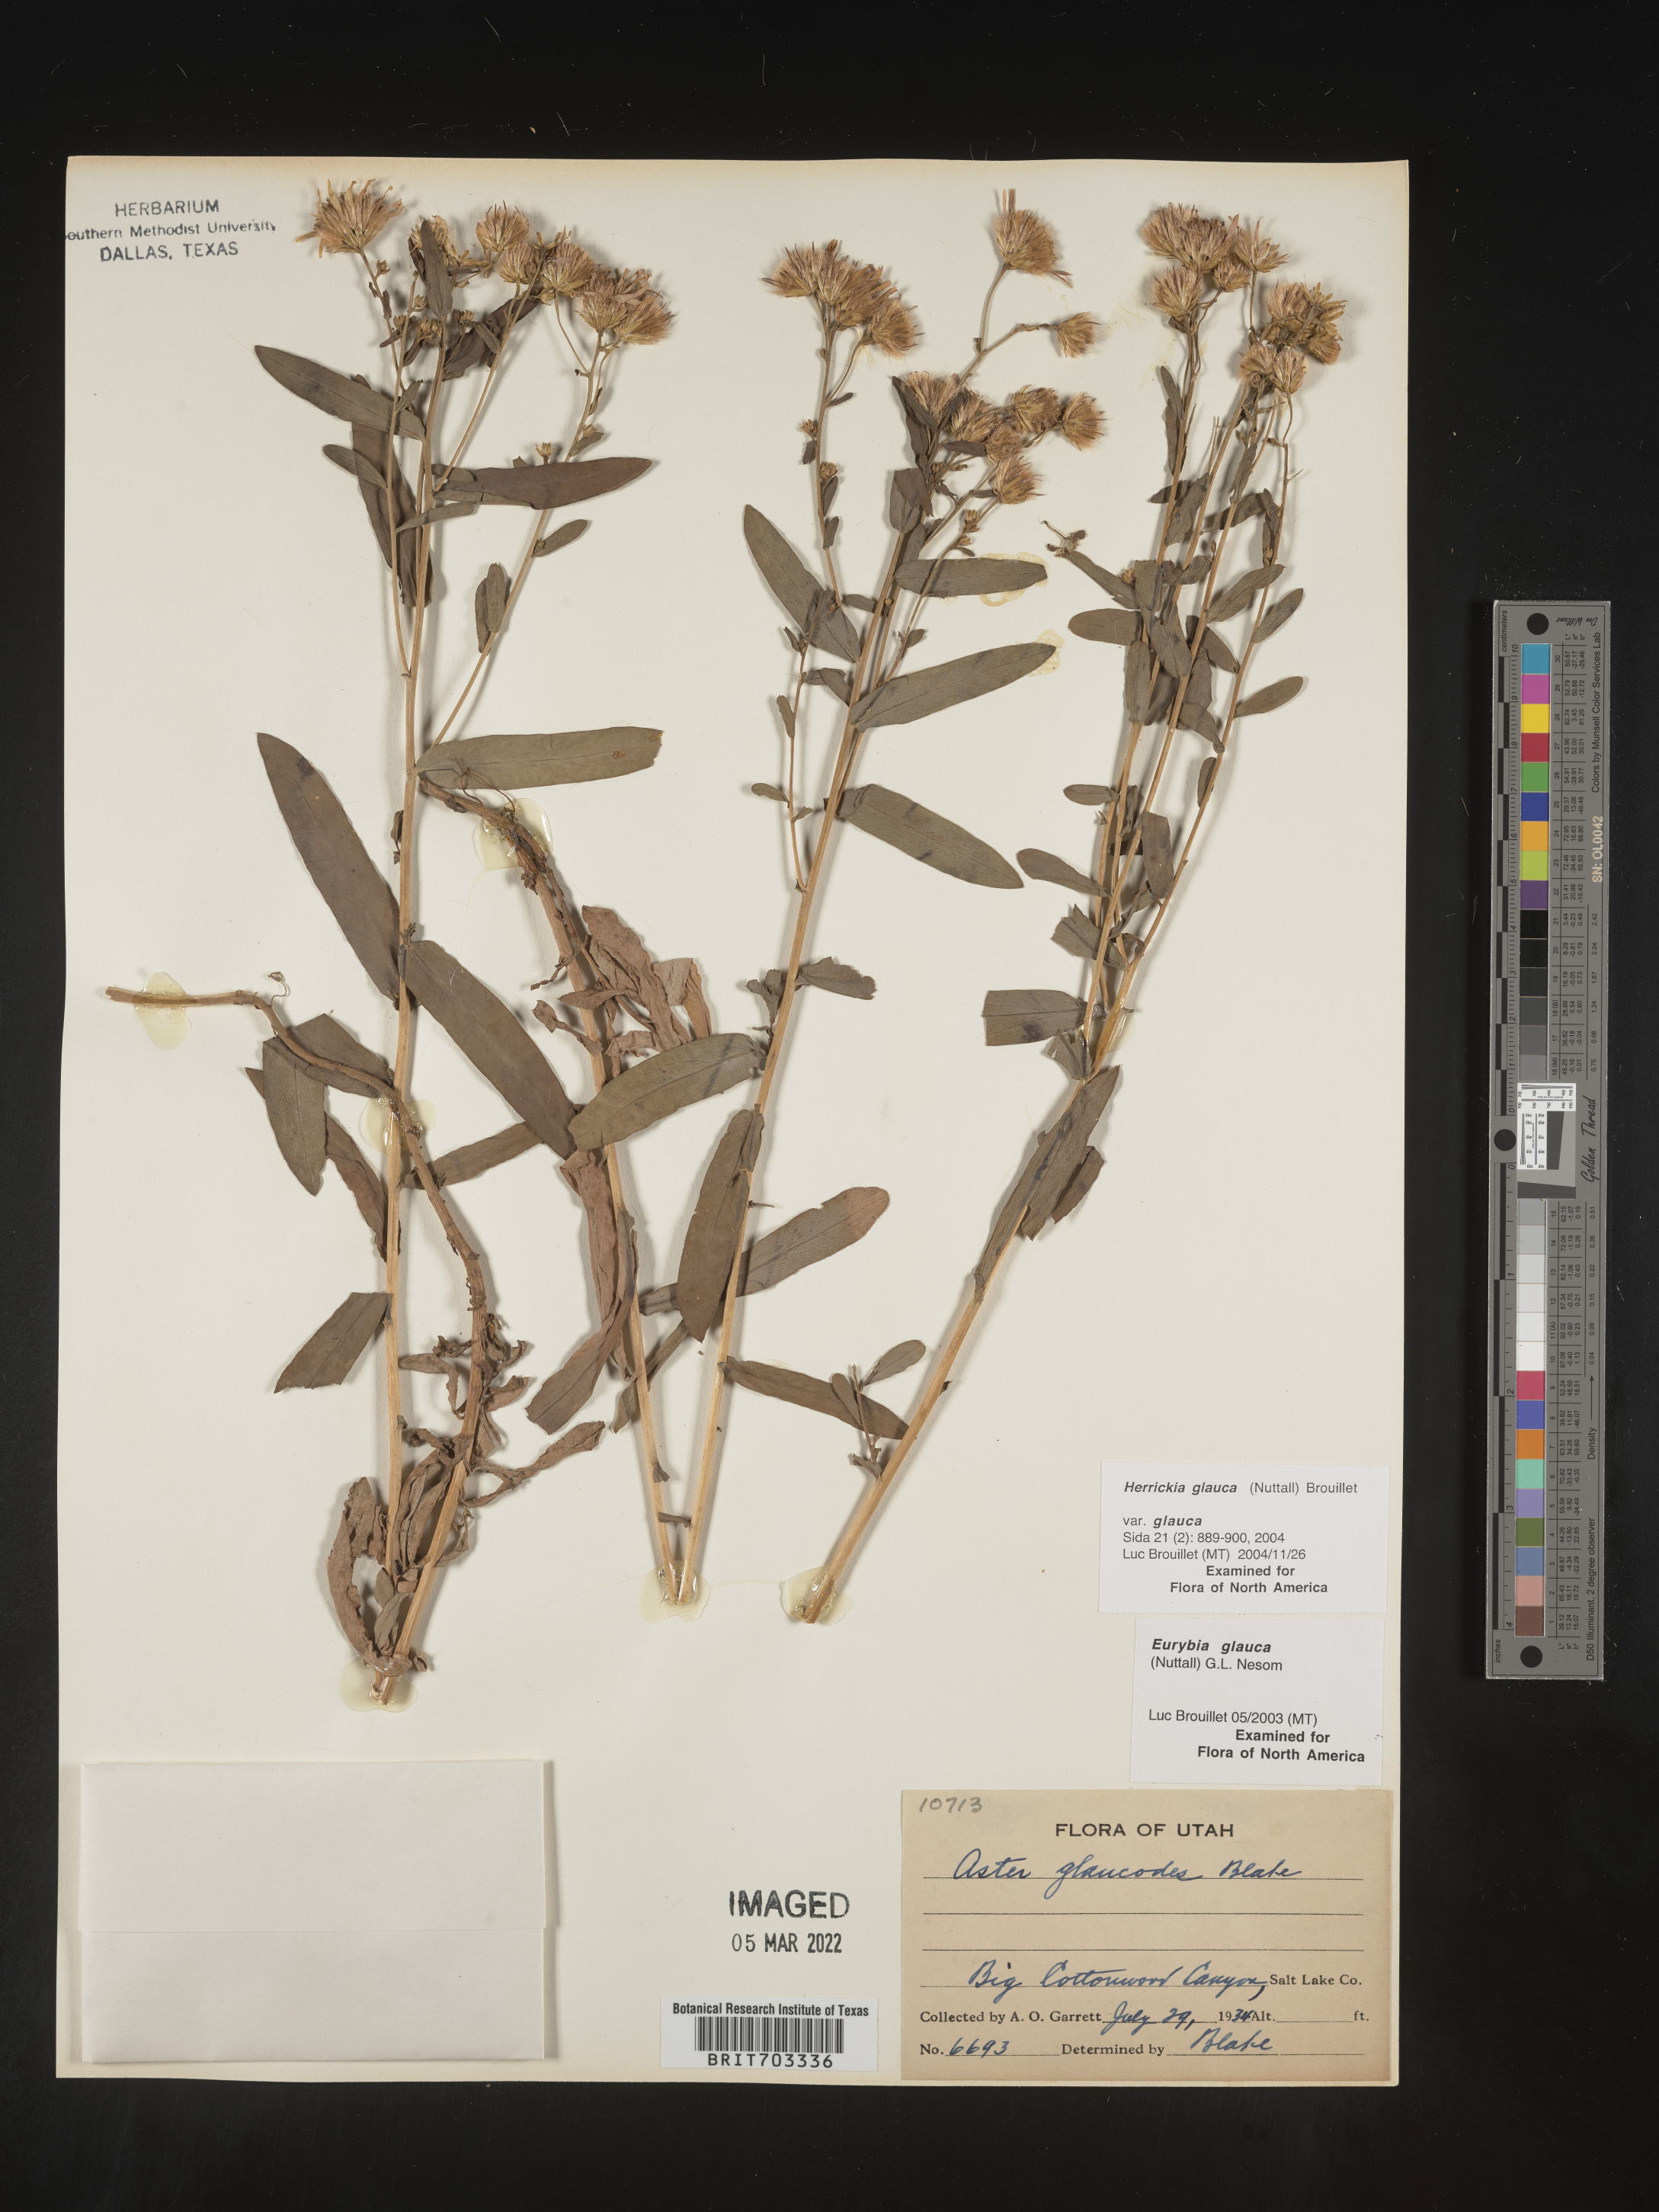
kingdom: Plantae
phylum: Tracheophyta
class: Magnoliopsida
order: Asterales
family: Asteraceae
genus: Eurybia
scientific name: Eurybia glauca
